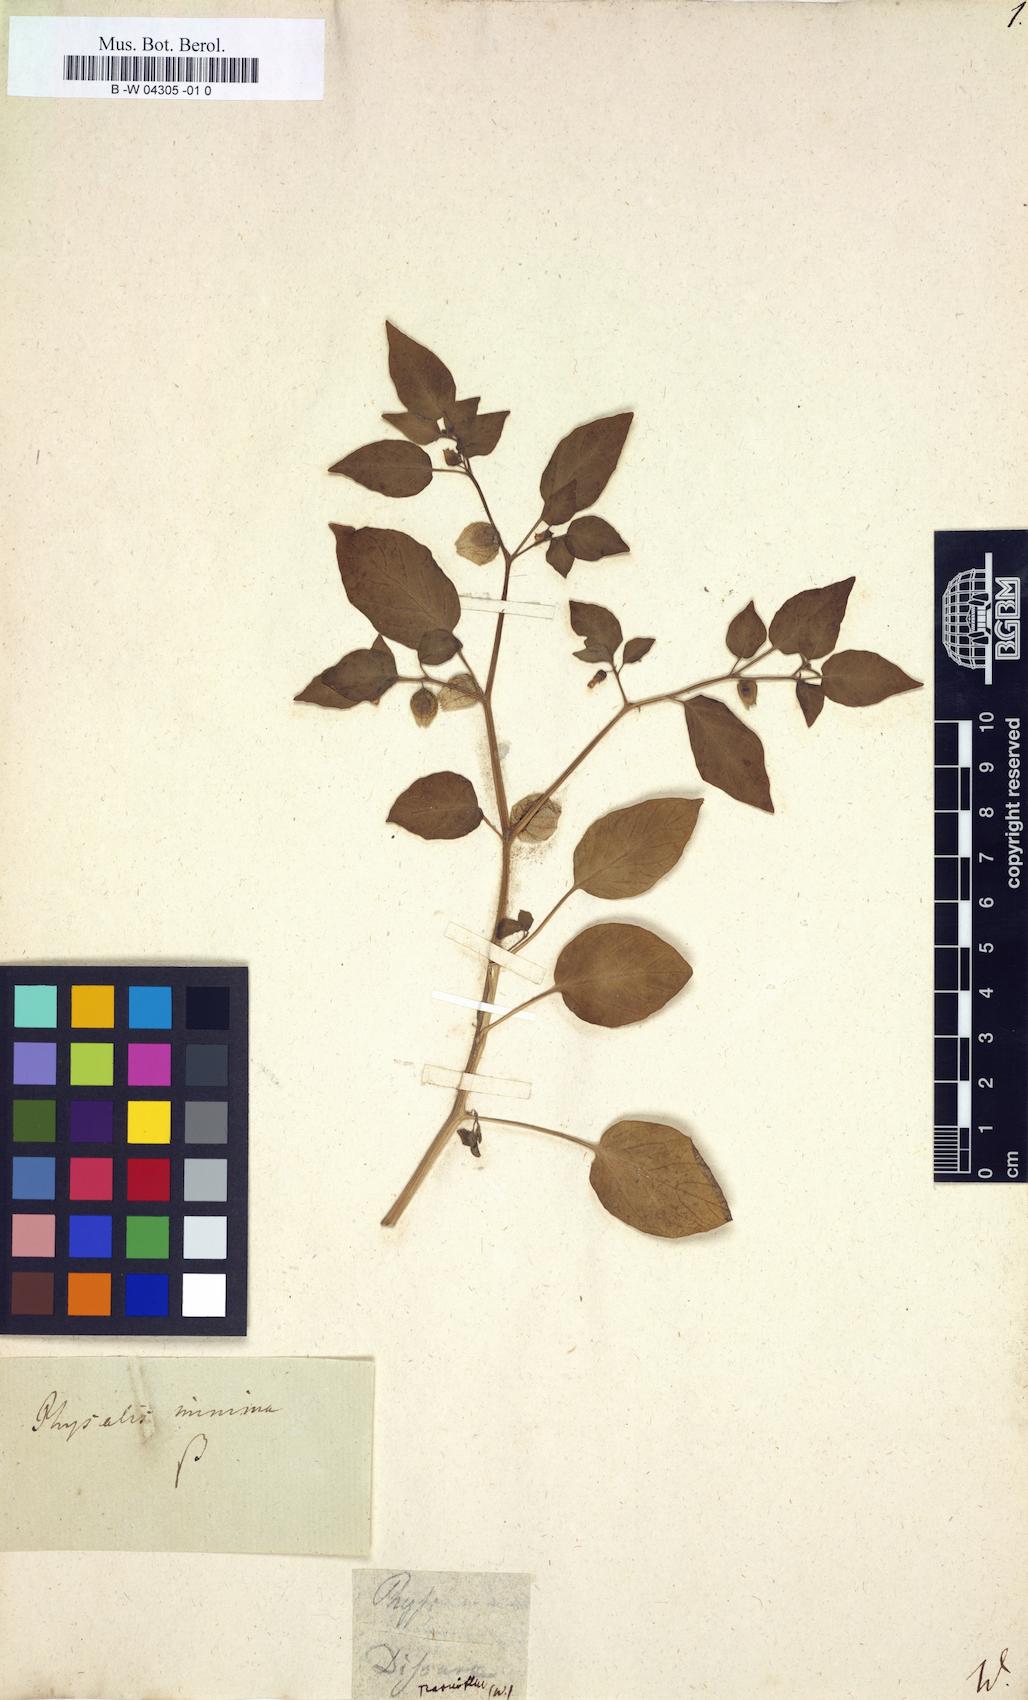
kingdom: Plantae
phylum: Tracheophyta
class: Magnoliopsida
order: Solanales
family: Solanaceae
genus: Physalis
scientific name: Physalis angulata
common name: Angular winter-cherry
